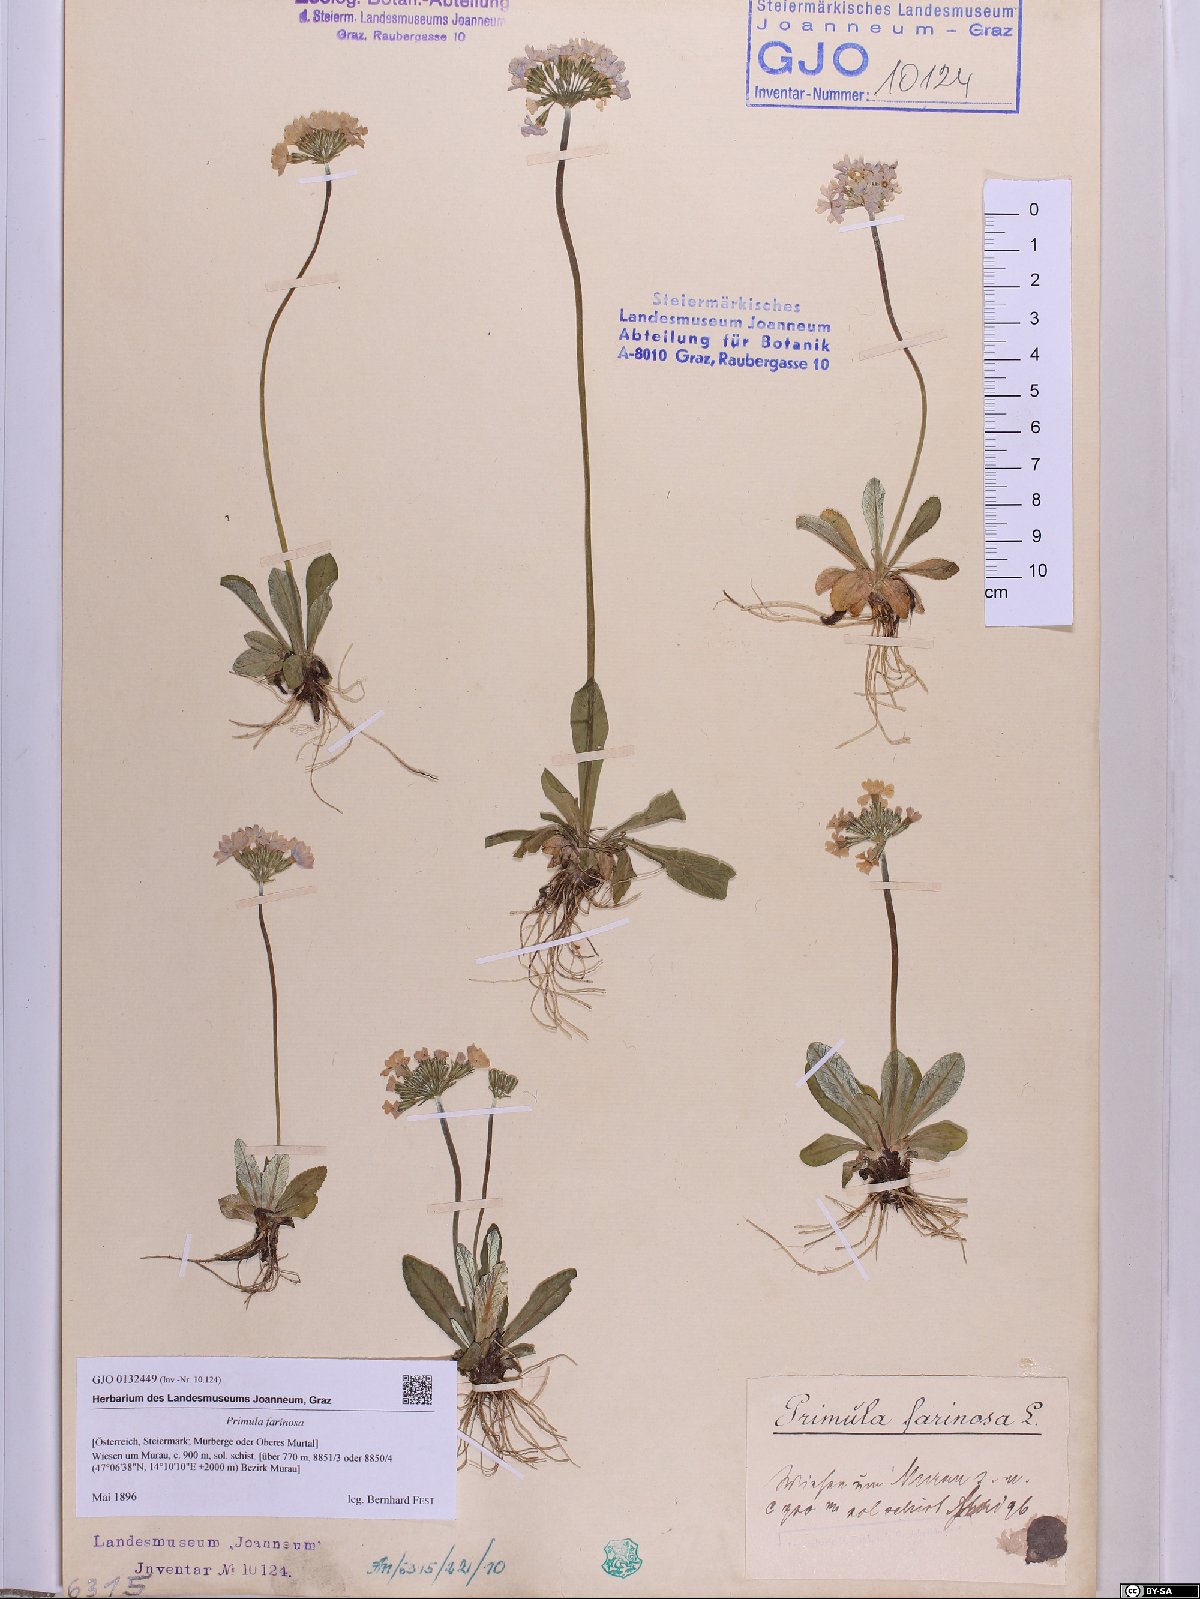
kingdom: Plantae
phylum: Tracheophyta
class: Magnoliopsida
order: Ericales
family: Primulaceae
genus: Primula
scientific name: Primula farinosa
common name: Bird's-eye primrose
